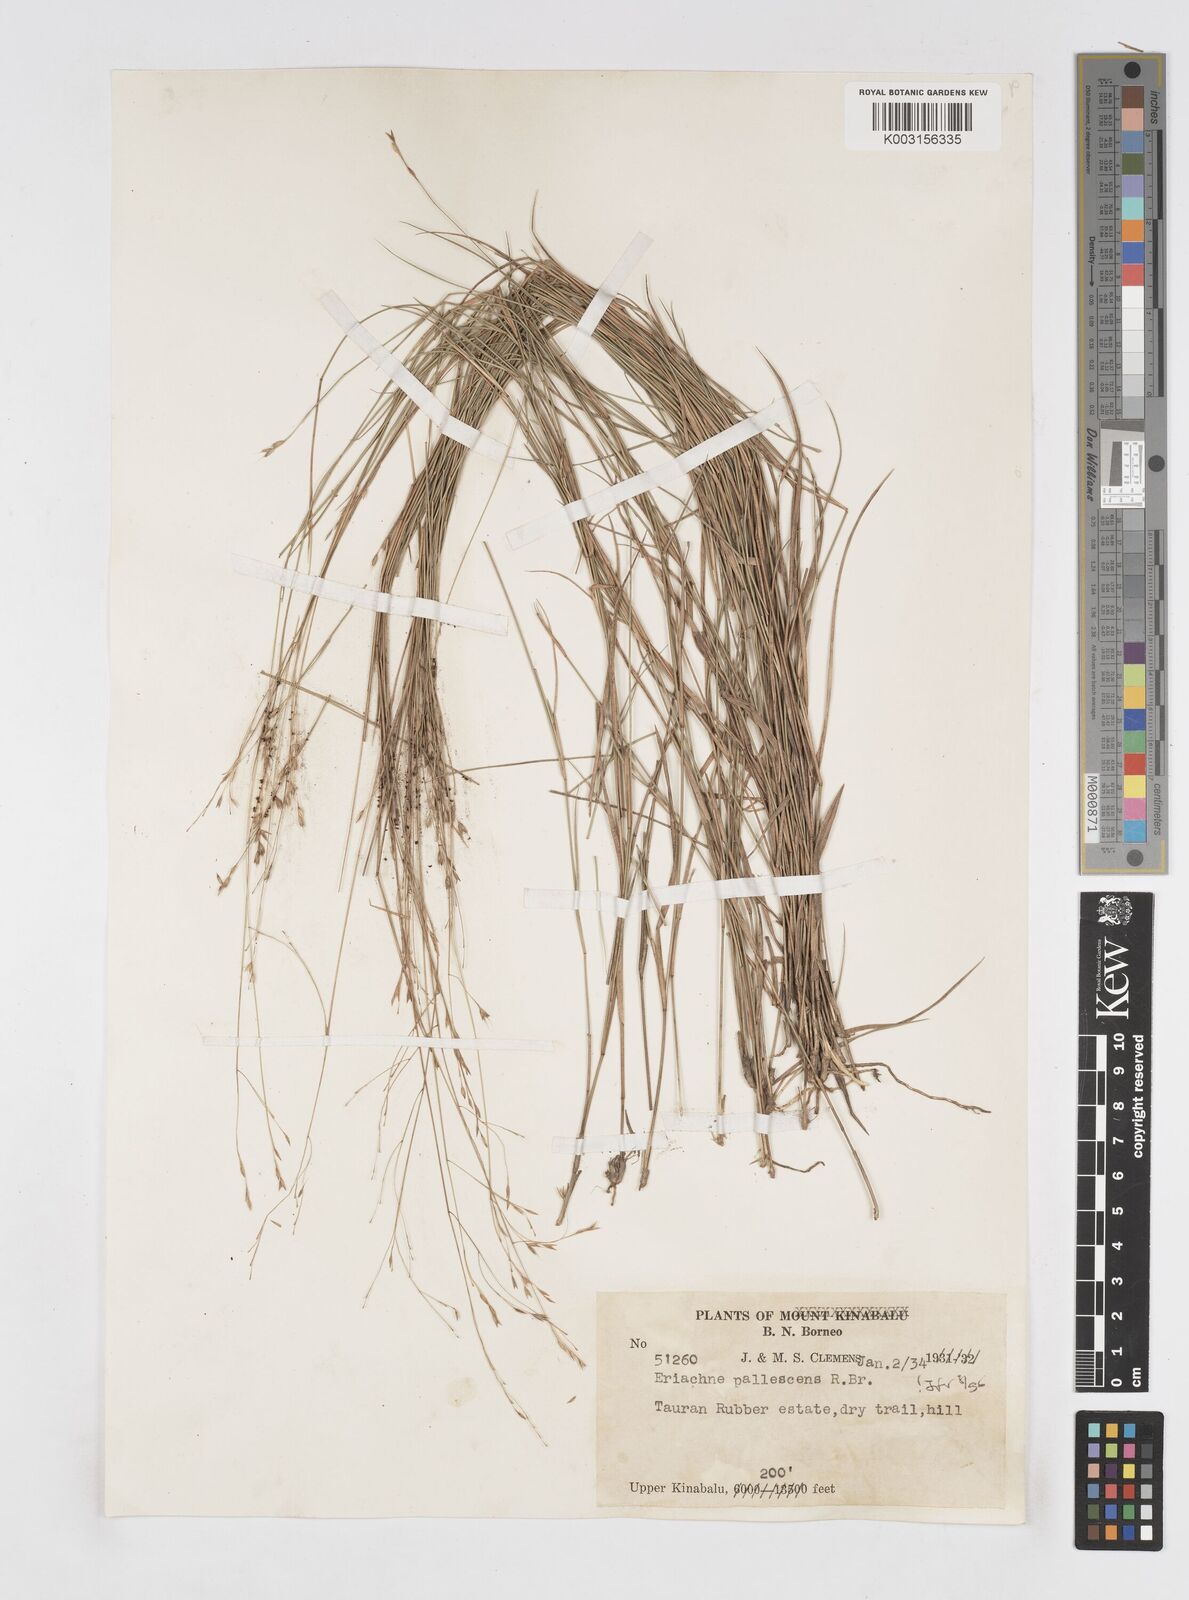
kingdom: Plantae
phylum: Tracheophyta
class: Liliopsida
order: Poales
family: Poaceae
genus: Eriachne
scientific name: Eriachne pallescens
